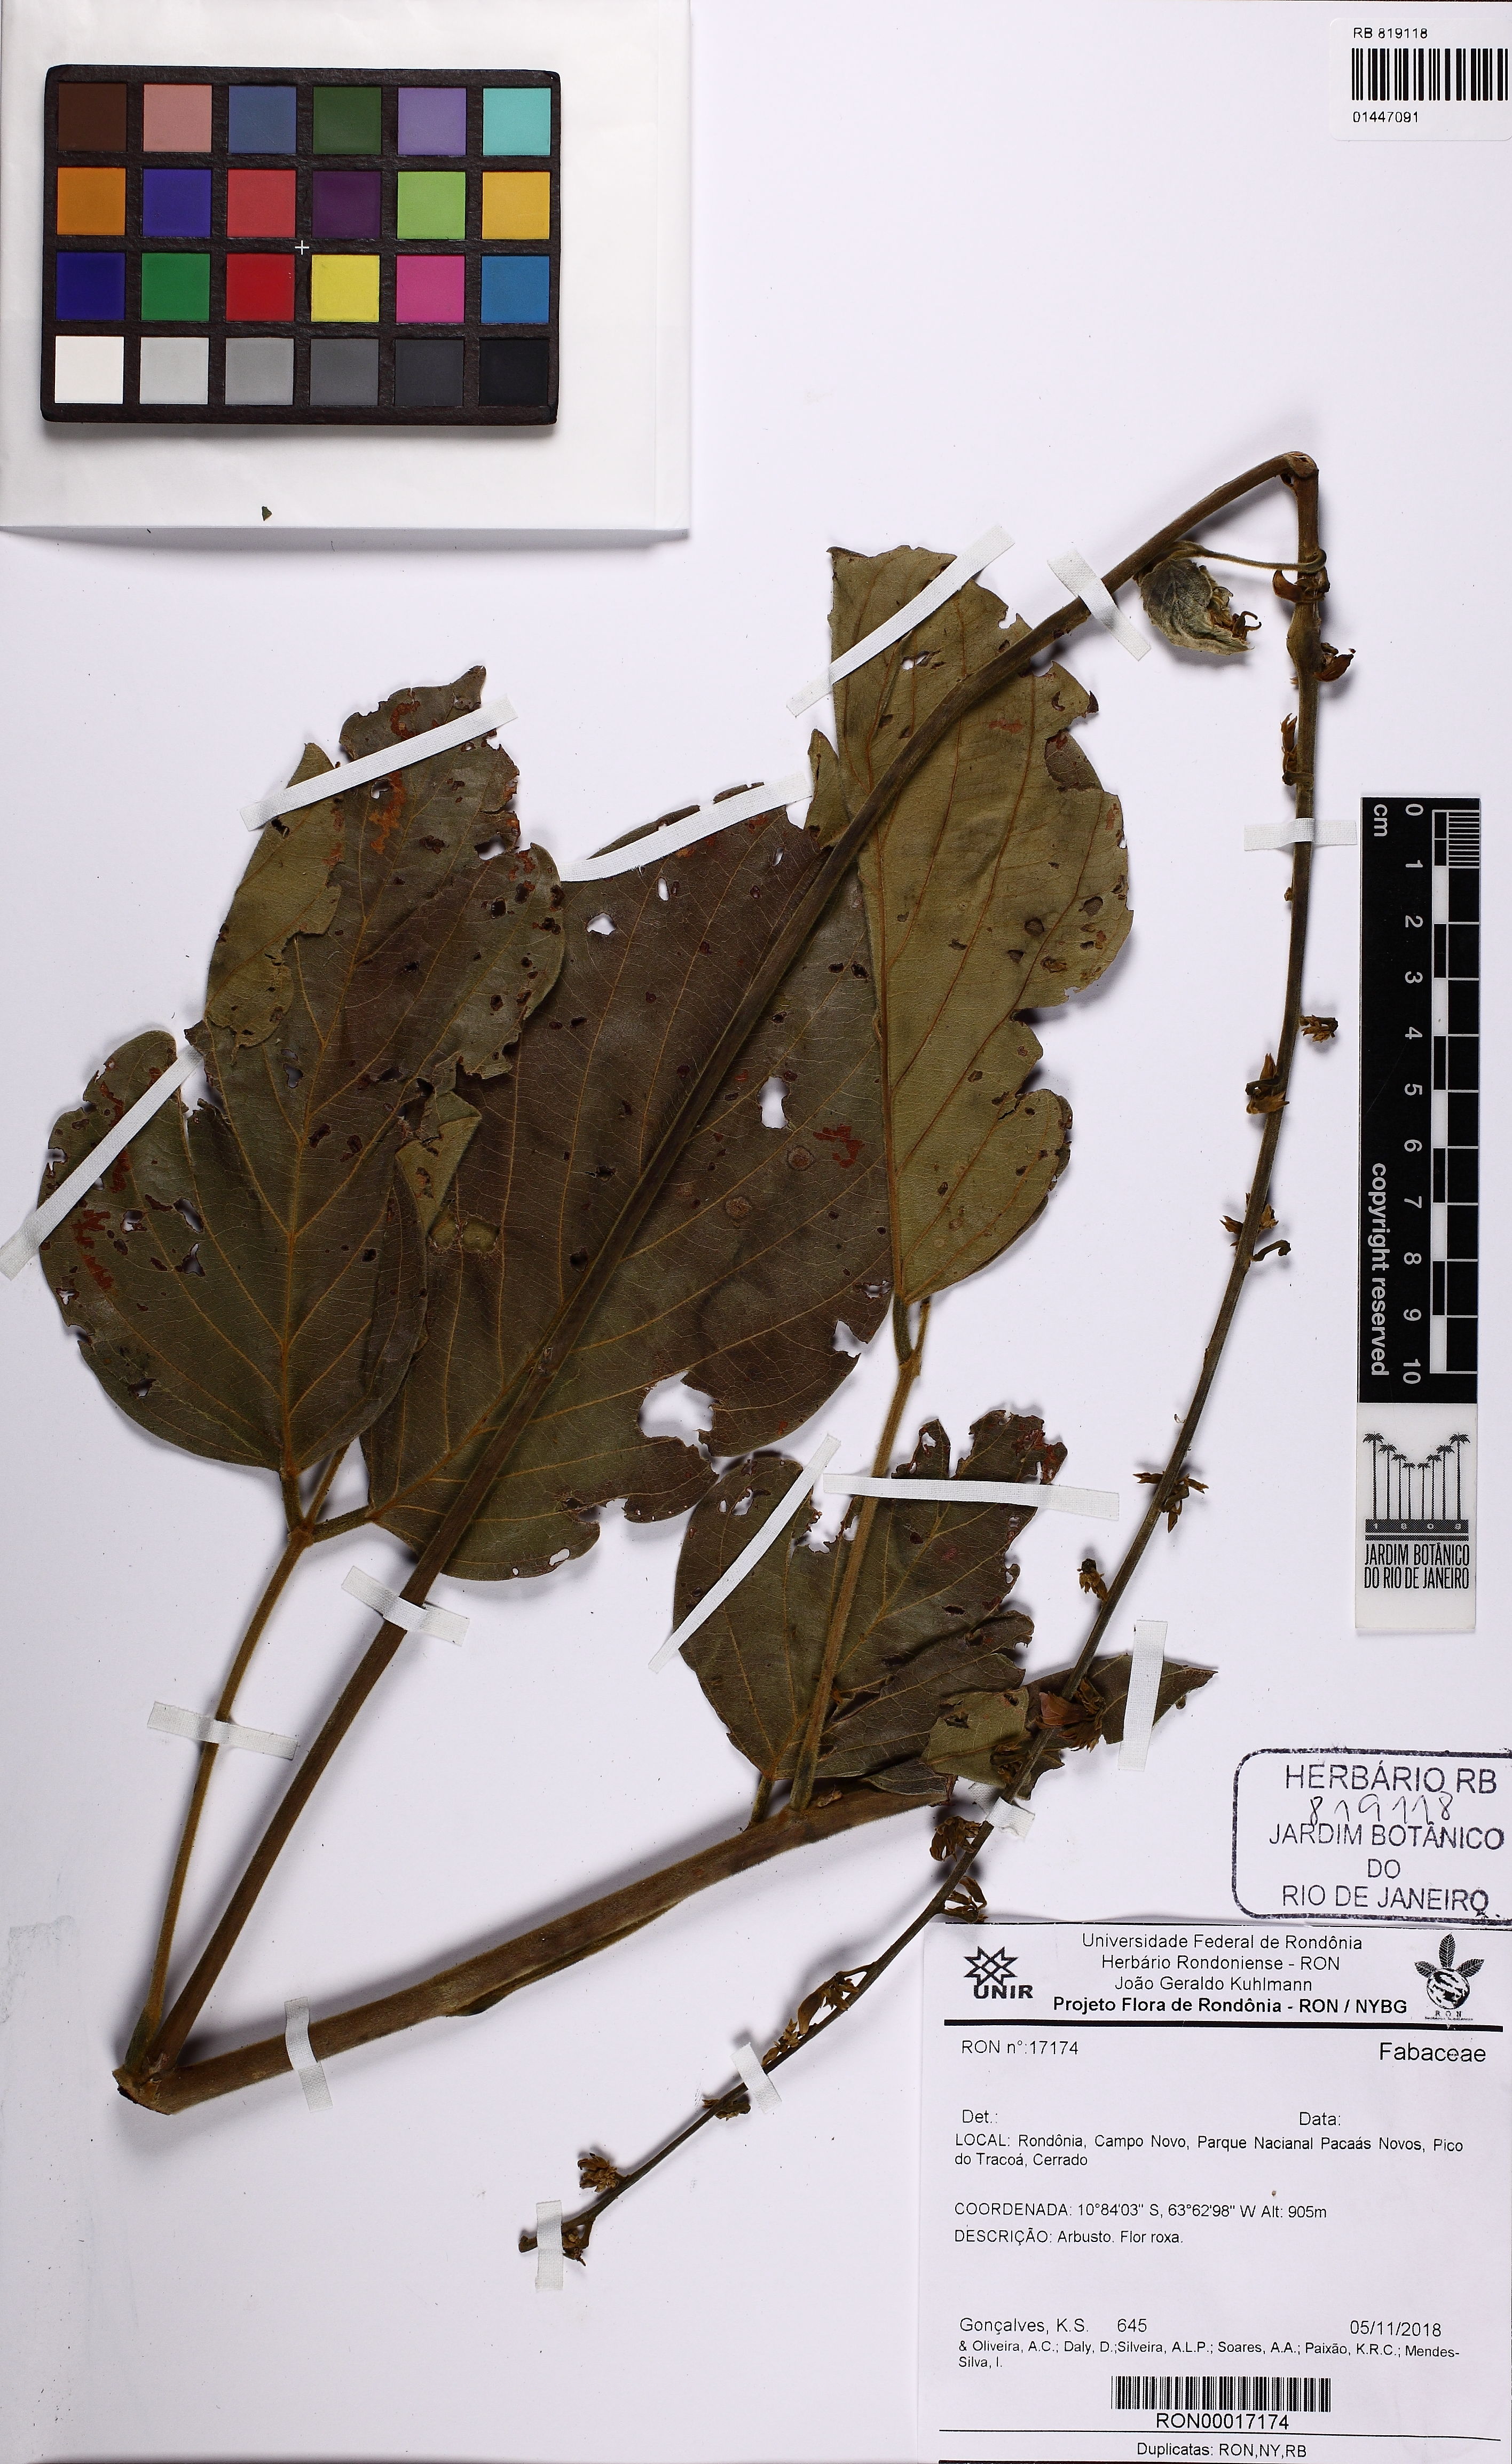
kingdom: Plantae
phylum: Tracheophyta
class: Magnoliopsida
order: Fabales
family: Fabaceae
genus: Macropsychanthus
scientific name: Macropsychanthus
